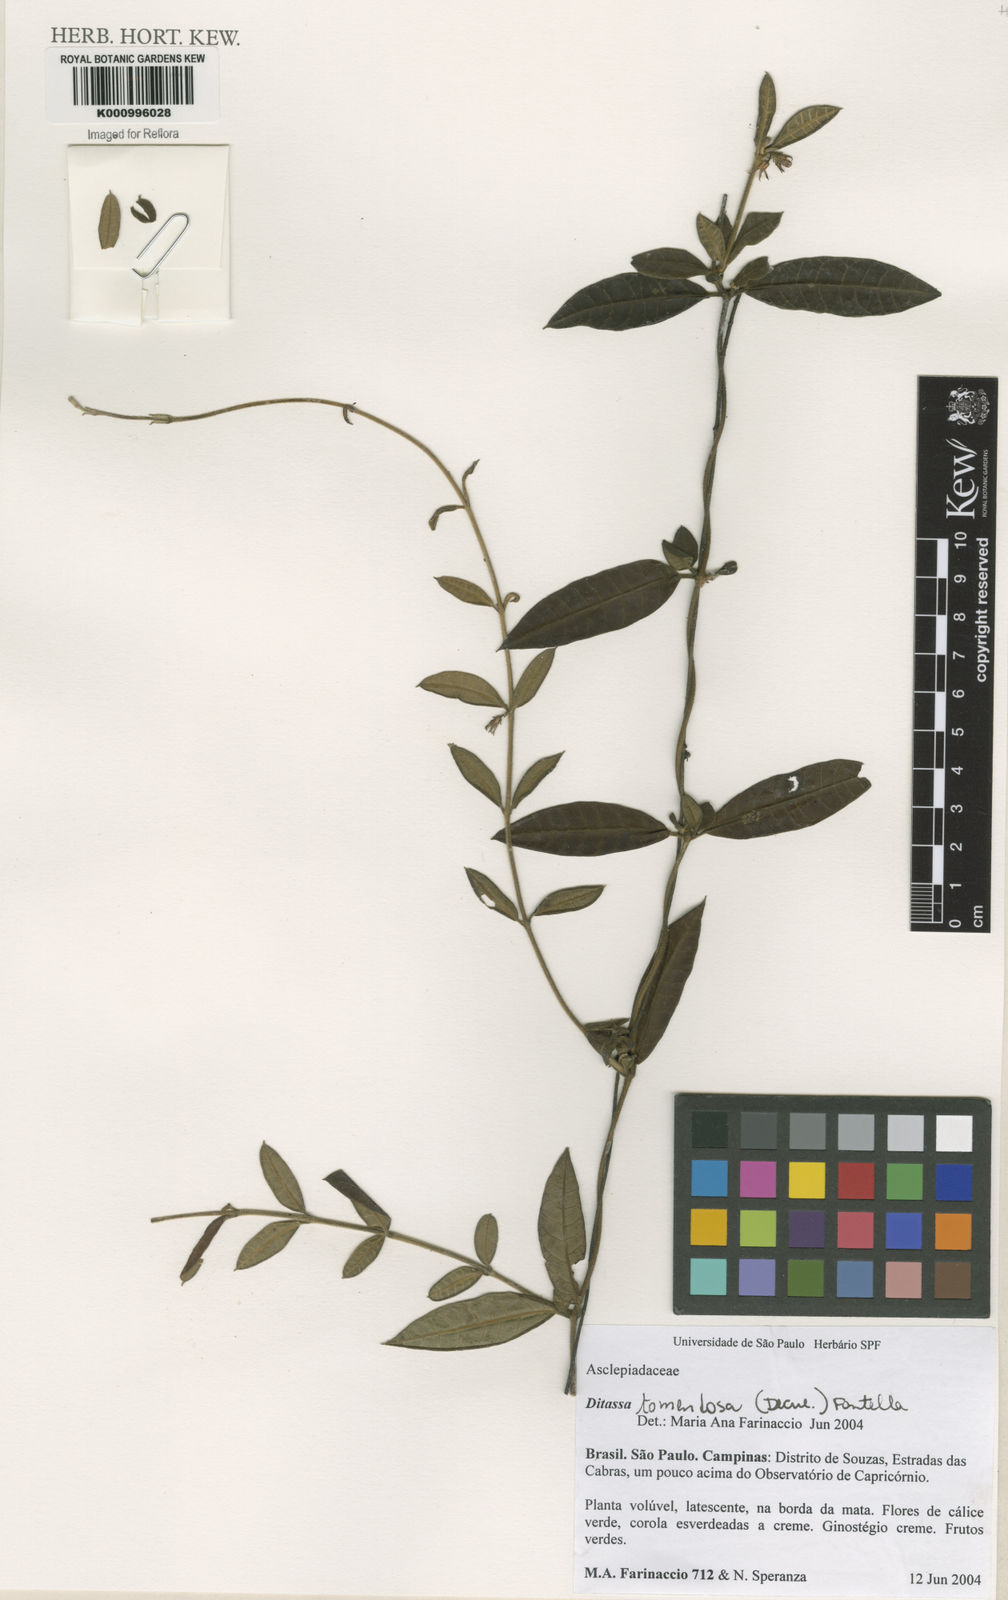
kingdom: Plantae
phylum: Tracheophyta
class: Magnoliopsida
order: Gentianales
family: Apocynaceae
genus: Ditassa
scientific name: Ditassa tomentosa
